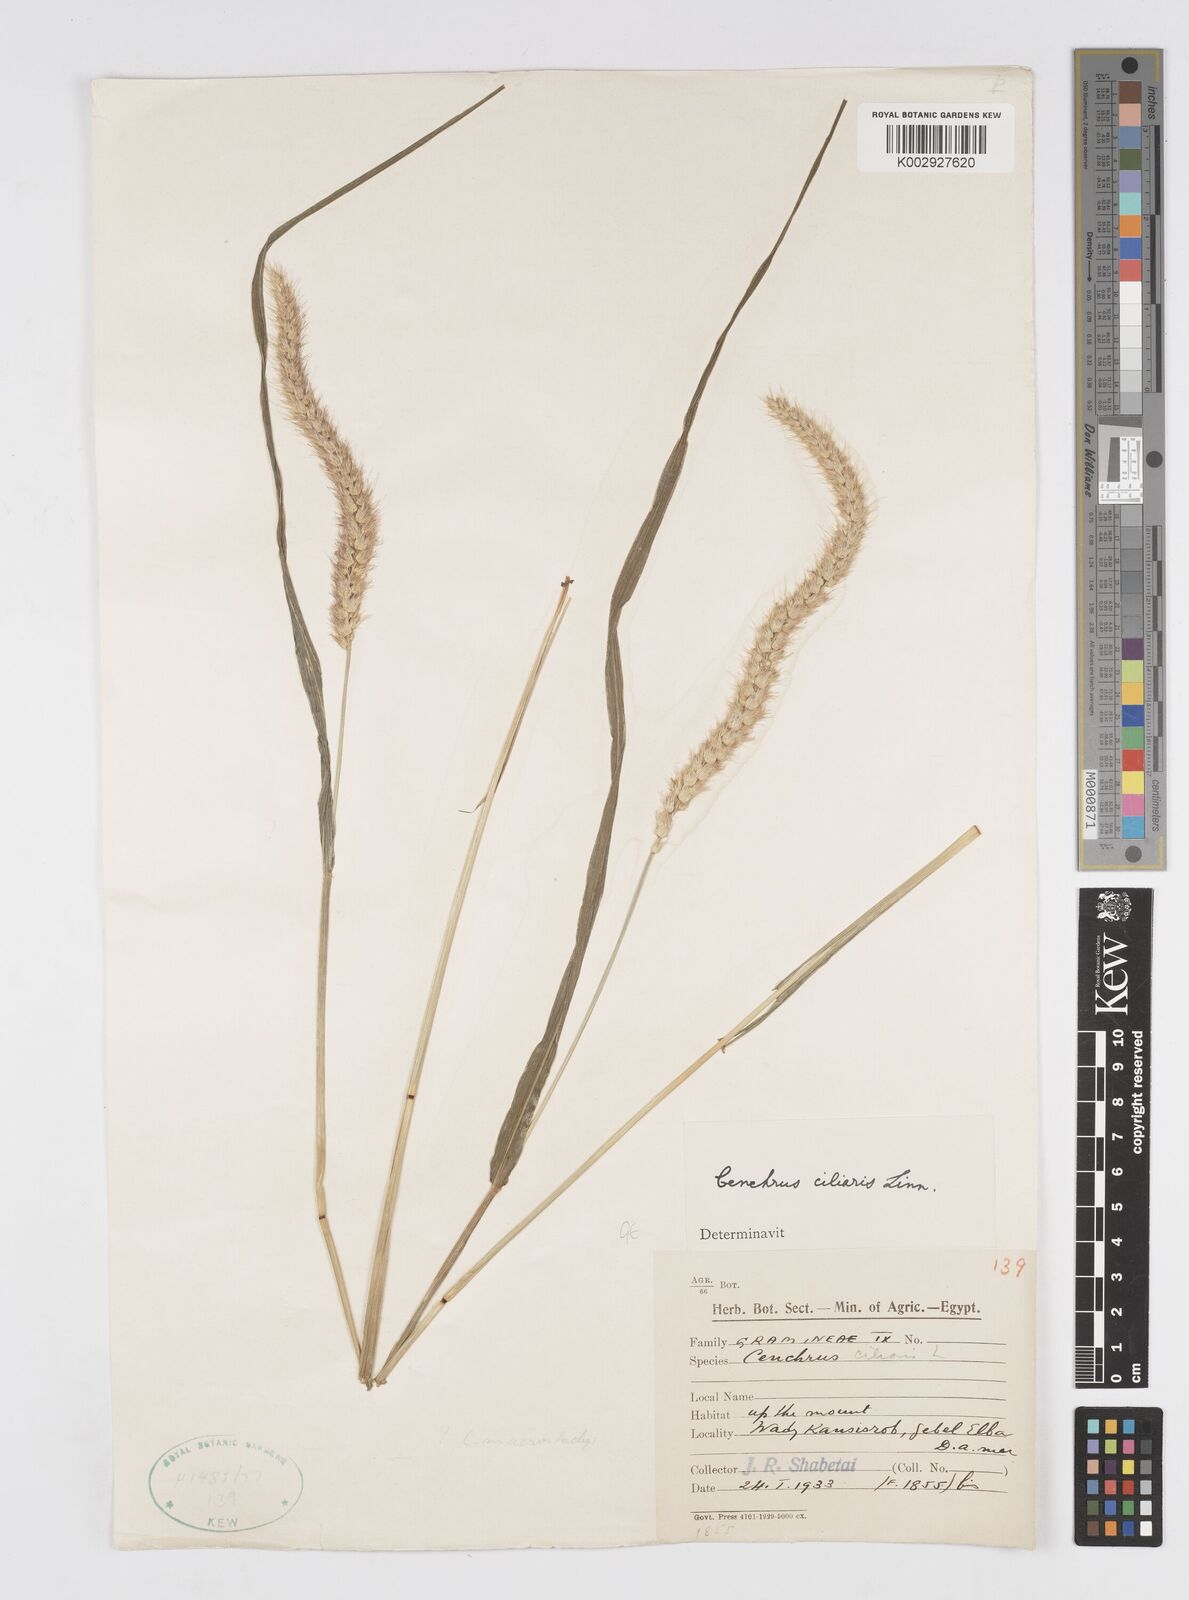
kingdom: Plantae
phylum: Tracheophyta
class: Liliopsida
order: Poales
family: Poaceae
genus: Cenchrus
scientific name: Cenchrus pennisetiformis
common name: Cloncurry
